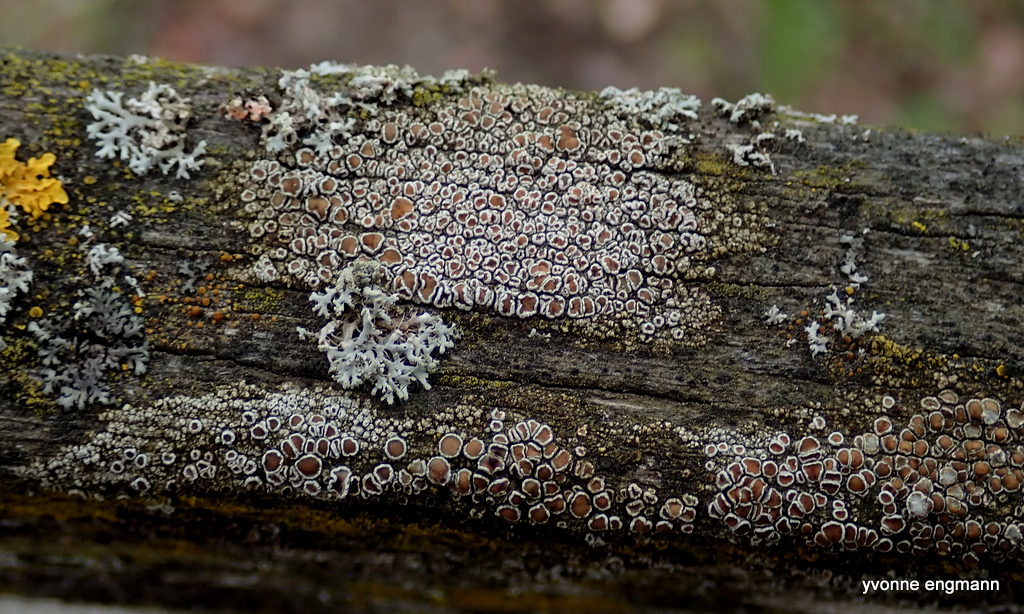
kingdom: Fungi
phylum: Ascomycota
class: Lecanoromycetes
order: Lecanorales
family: Lecanoraceae
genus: Lecanora
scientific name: Lecanora chlarotera
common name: brun kantskivelav
